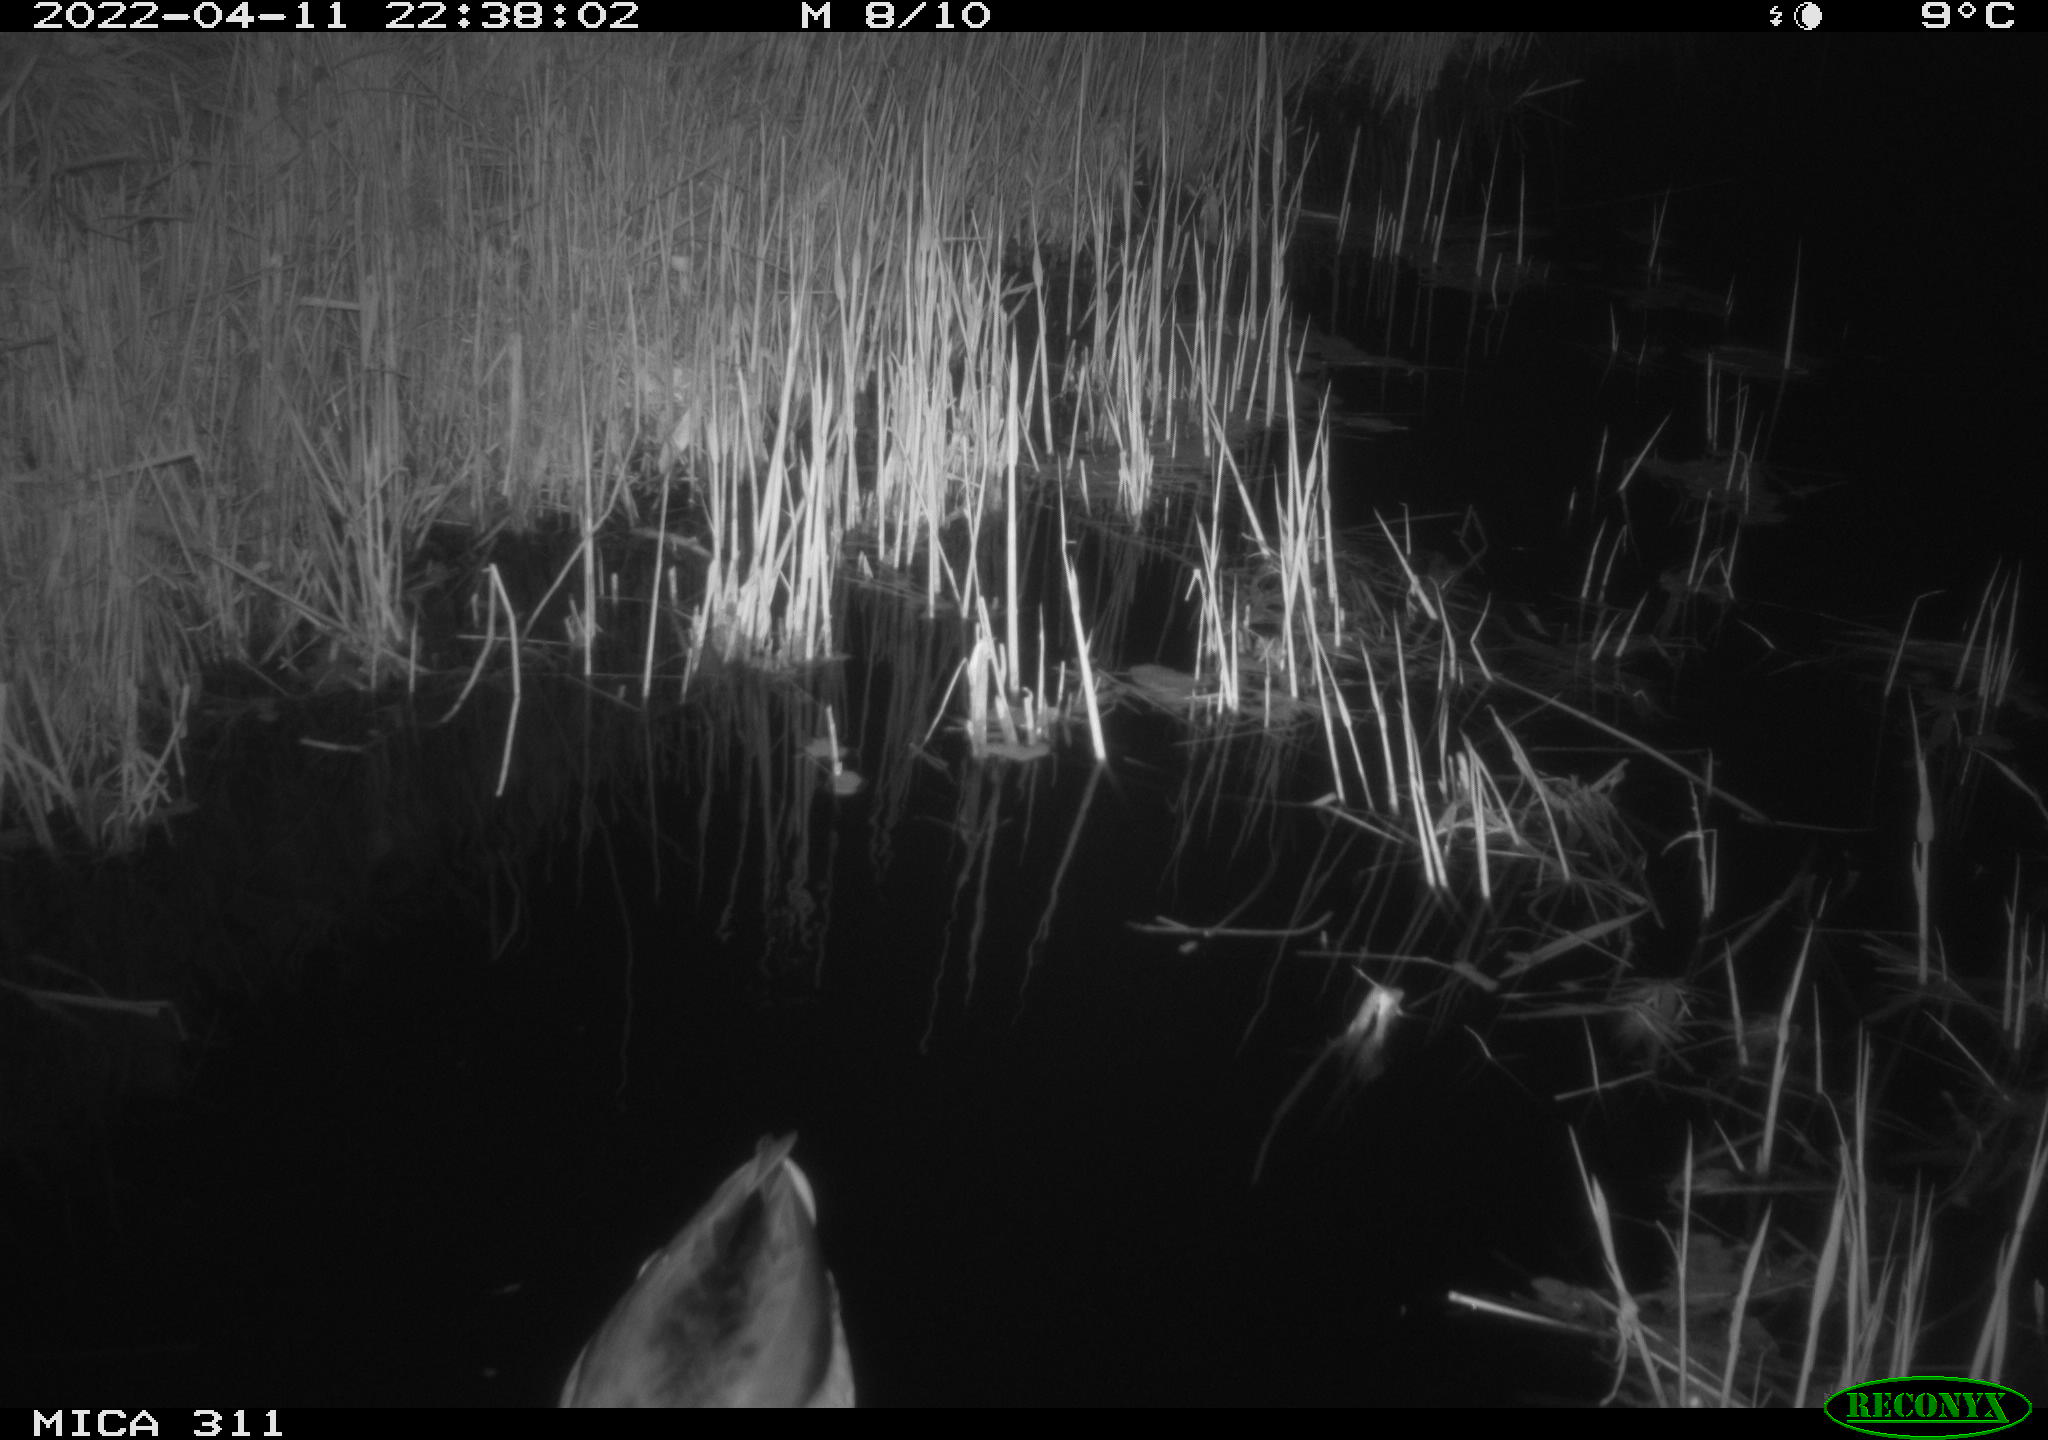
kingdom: Animalia
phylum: Chordata
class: Aves
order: Anseriformes
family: Anatidae
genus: Anas
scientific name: Anas
